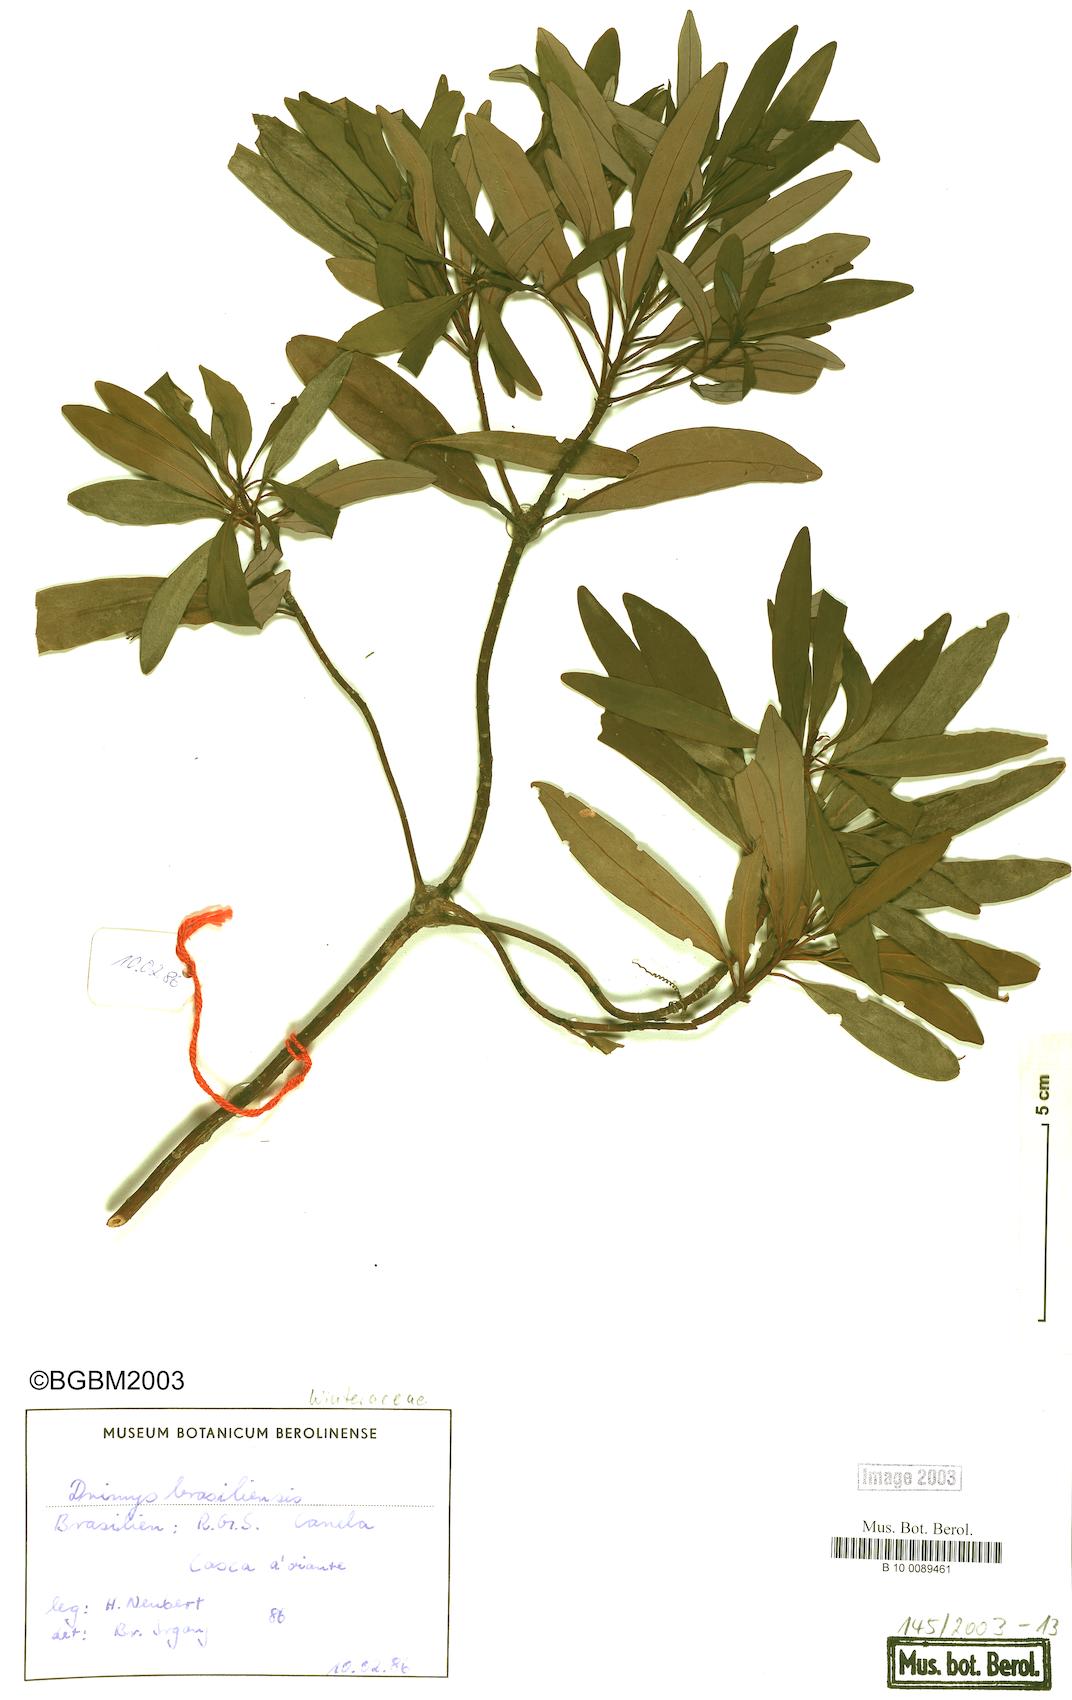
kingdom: Plantae
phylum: Tracheophyta
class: Magnoliopsida
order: Canellales
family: Winteraceae
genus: Drimys
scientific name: Drimys angustifolia
